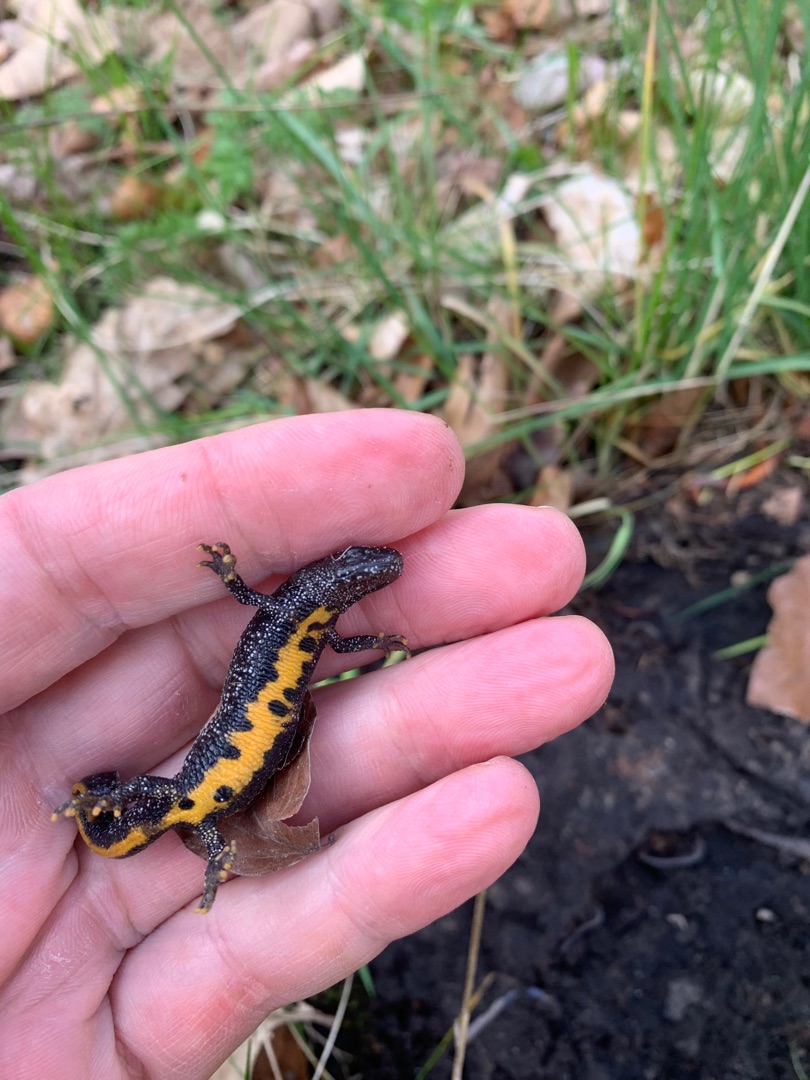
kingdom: Animalia
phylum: Chordata
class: Amphibia
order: Caudata
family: Salamandridae
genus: Triturus
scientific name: Triturus cristatus
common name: Stor vandsalamander
